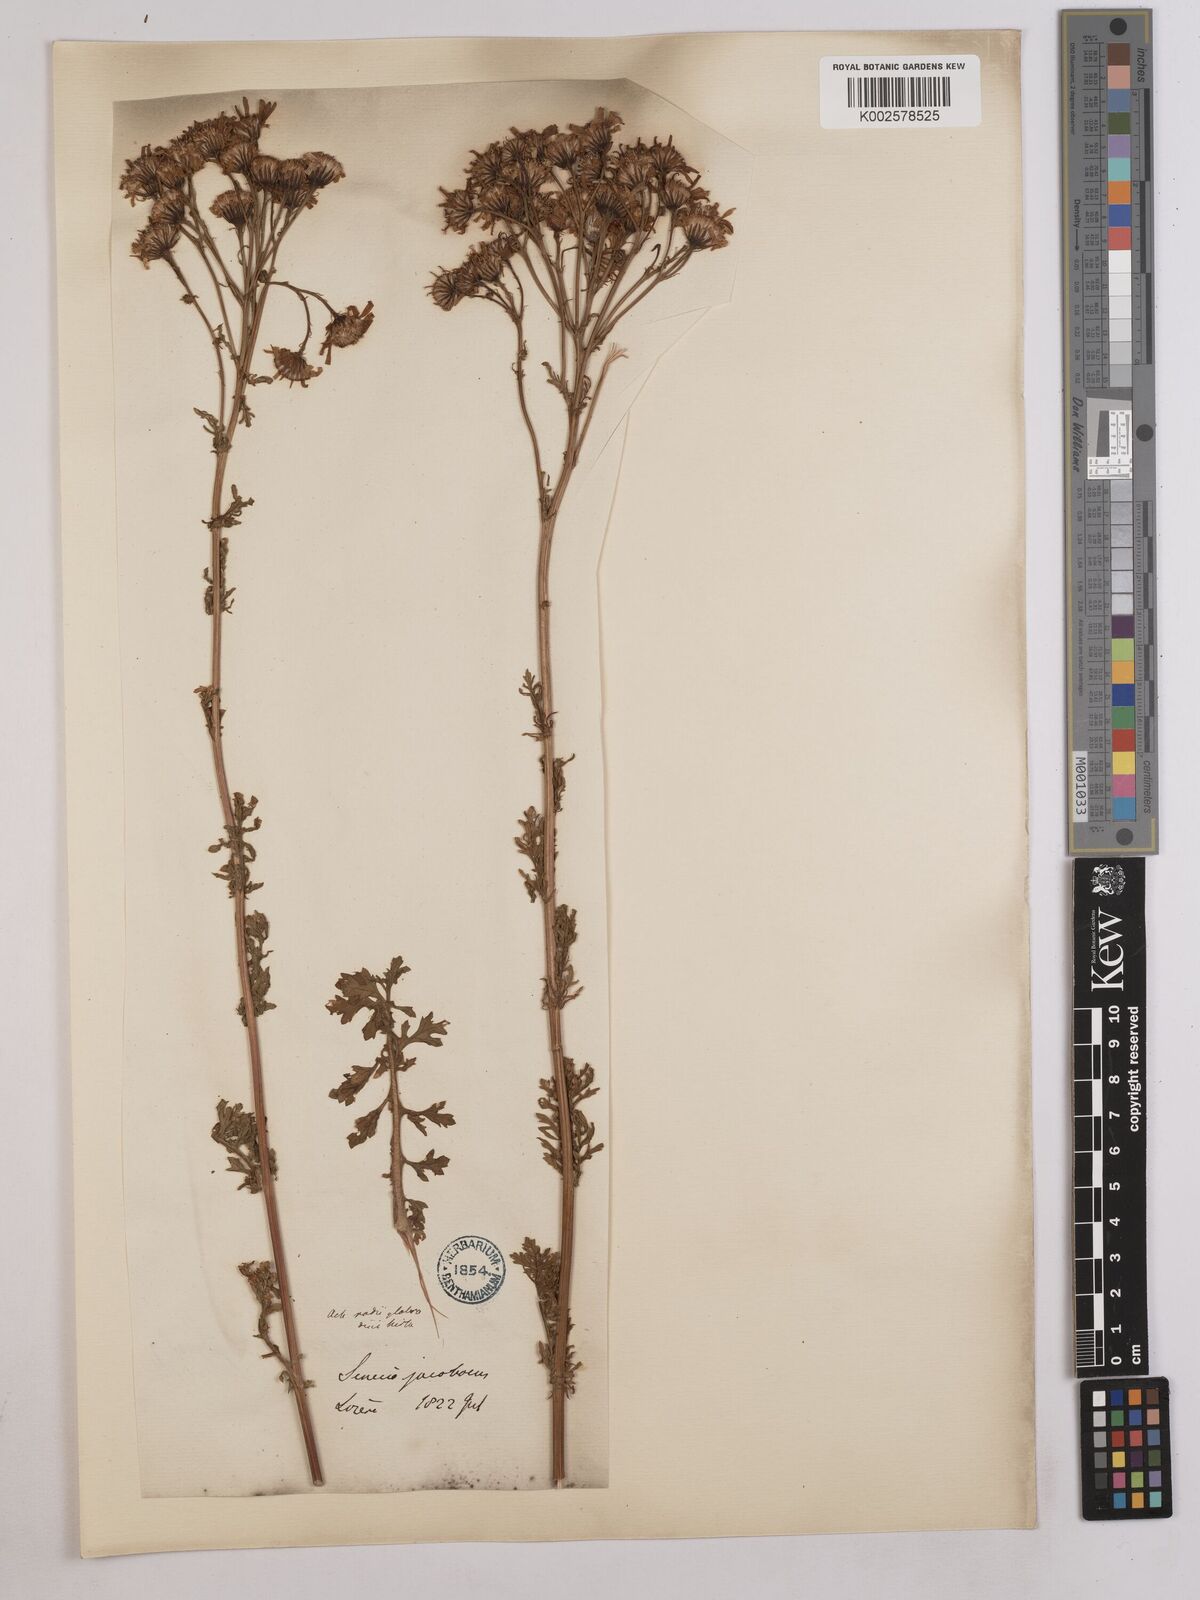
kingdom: Plantae
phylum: Tracheophyta
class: Magnoliopsida
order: Asterales
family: Asteraceae
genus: Jacobaea
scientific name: Jacobaea vulgaris
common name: Stinking willie
